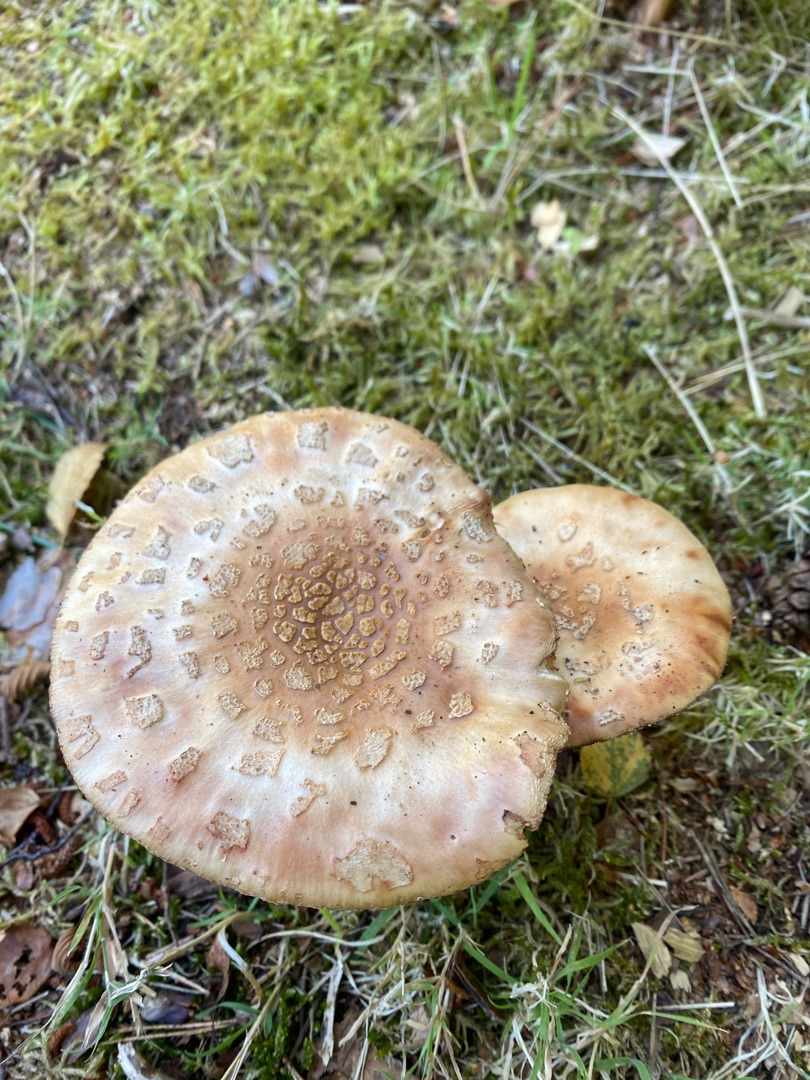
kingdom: Fungi
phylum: Basidiomycota
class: Agaricomycetes
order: Agaricales
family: Amanitaceae
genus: Amanita
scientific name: Amanita rubescens
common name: Rødmende fluesvamp
